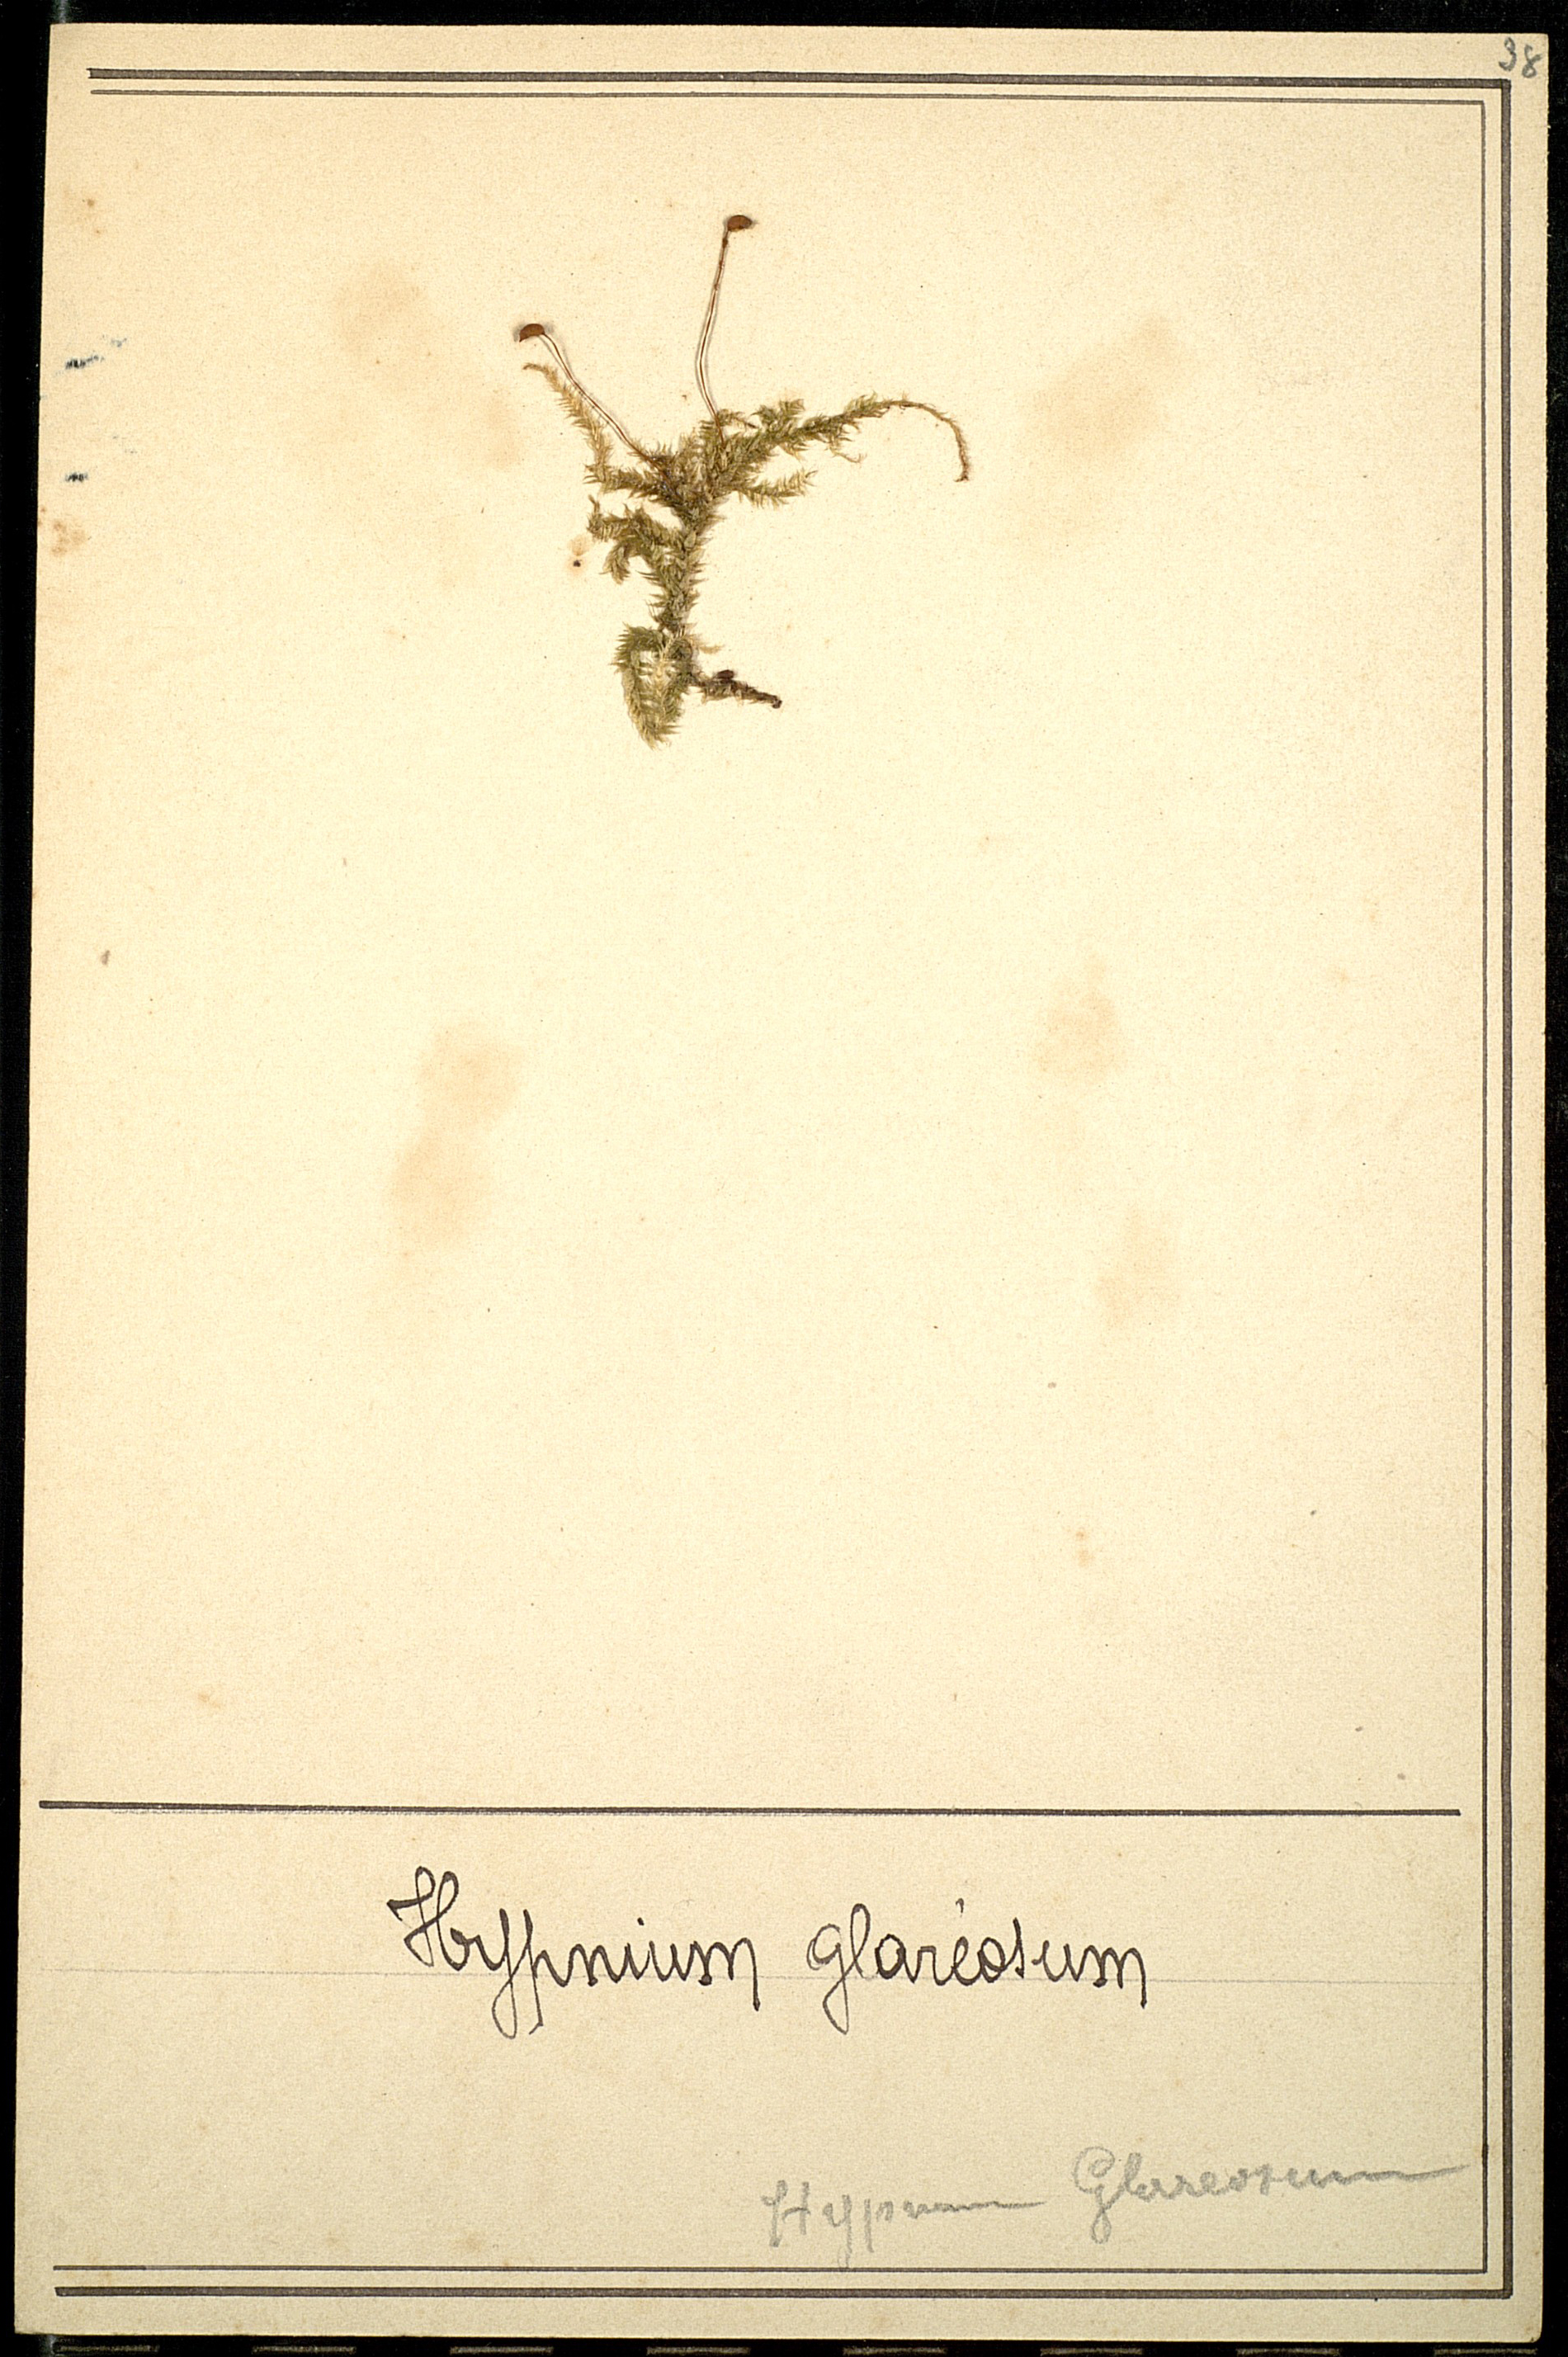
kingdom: Plantae
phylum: Bryophyta
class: Bryopsida
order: Hypnales
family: Brachytheciaceae
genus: Brachythecium
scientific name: Brachythecium glareosum
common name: Streaky feather-moss
